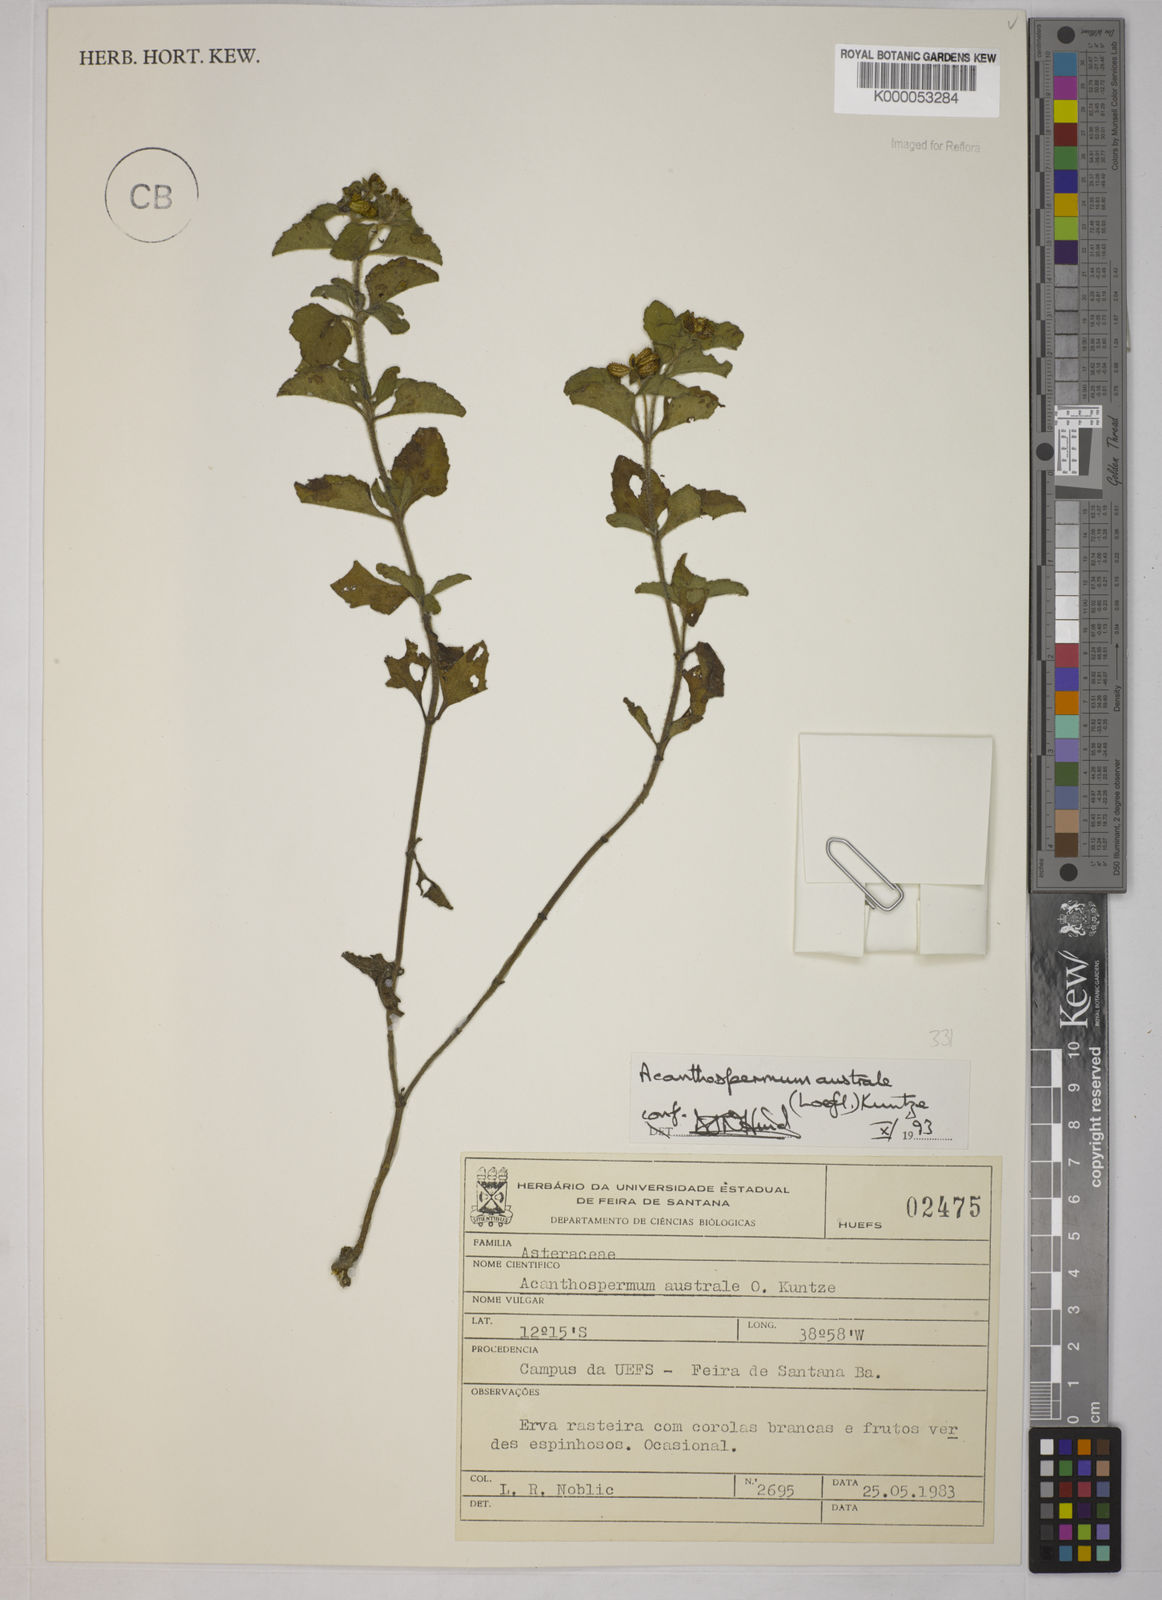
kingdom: Plantae
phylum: Tracheophyta
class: Magnoliopsida
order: Asterales
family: Asteraceae
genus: Acanthospermum
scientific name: Acanthospermum australe
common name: Paraguayan starbur
